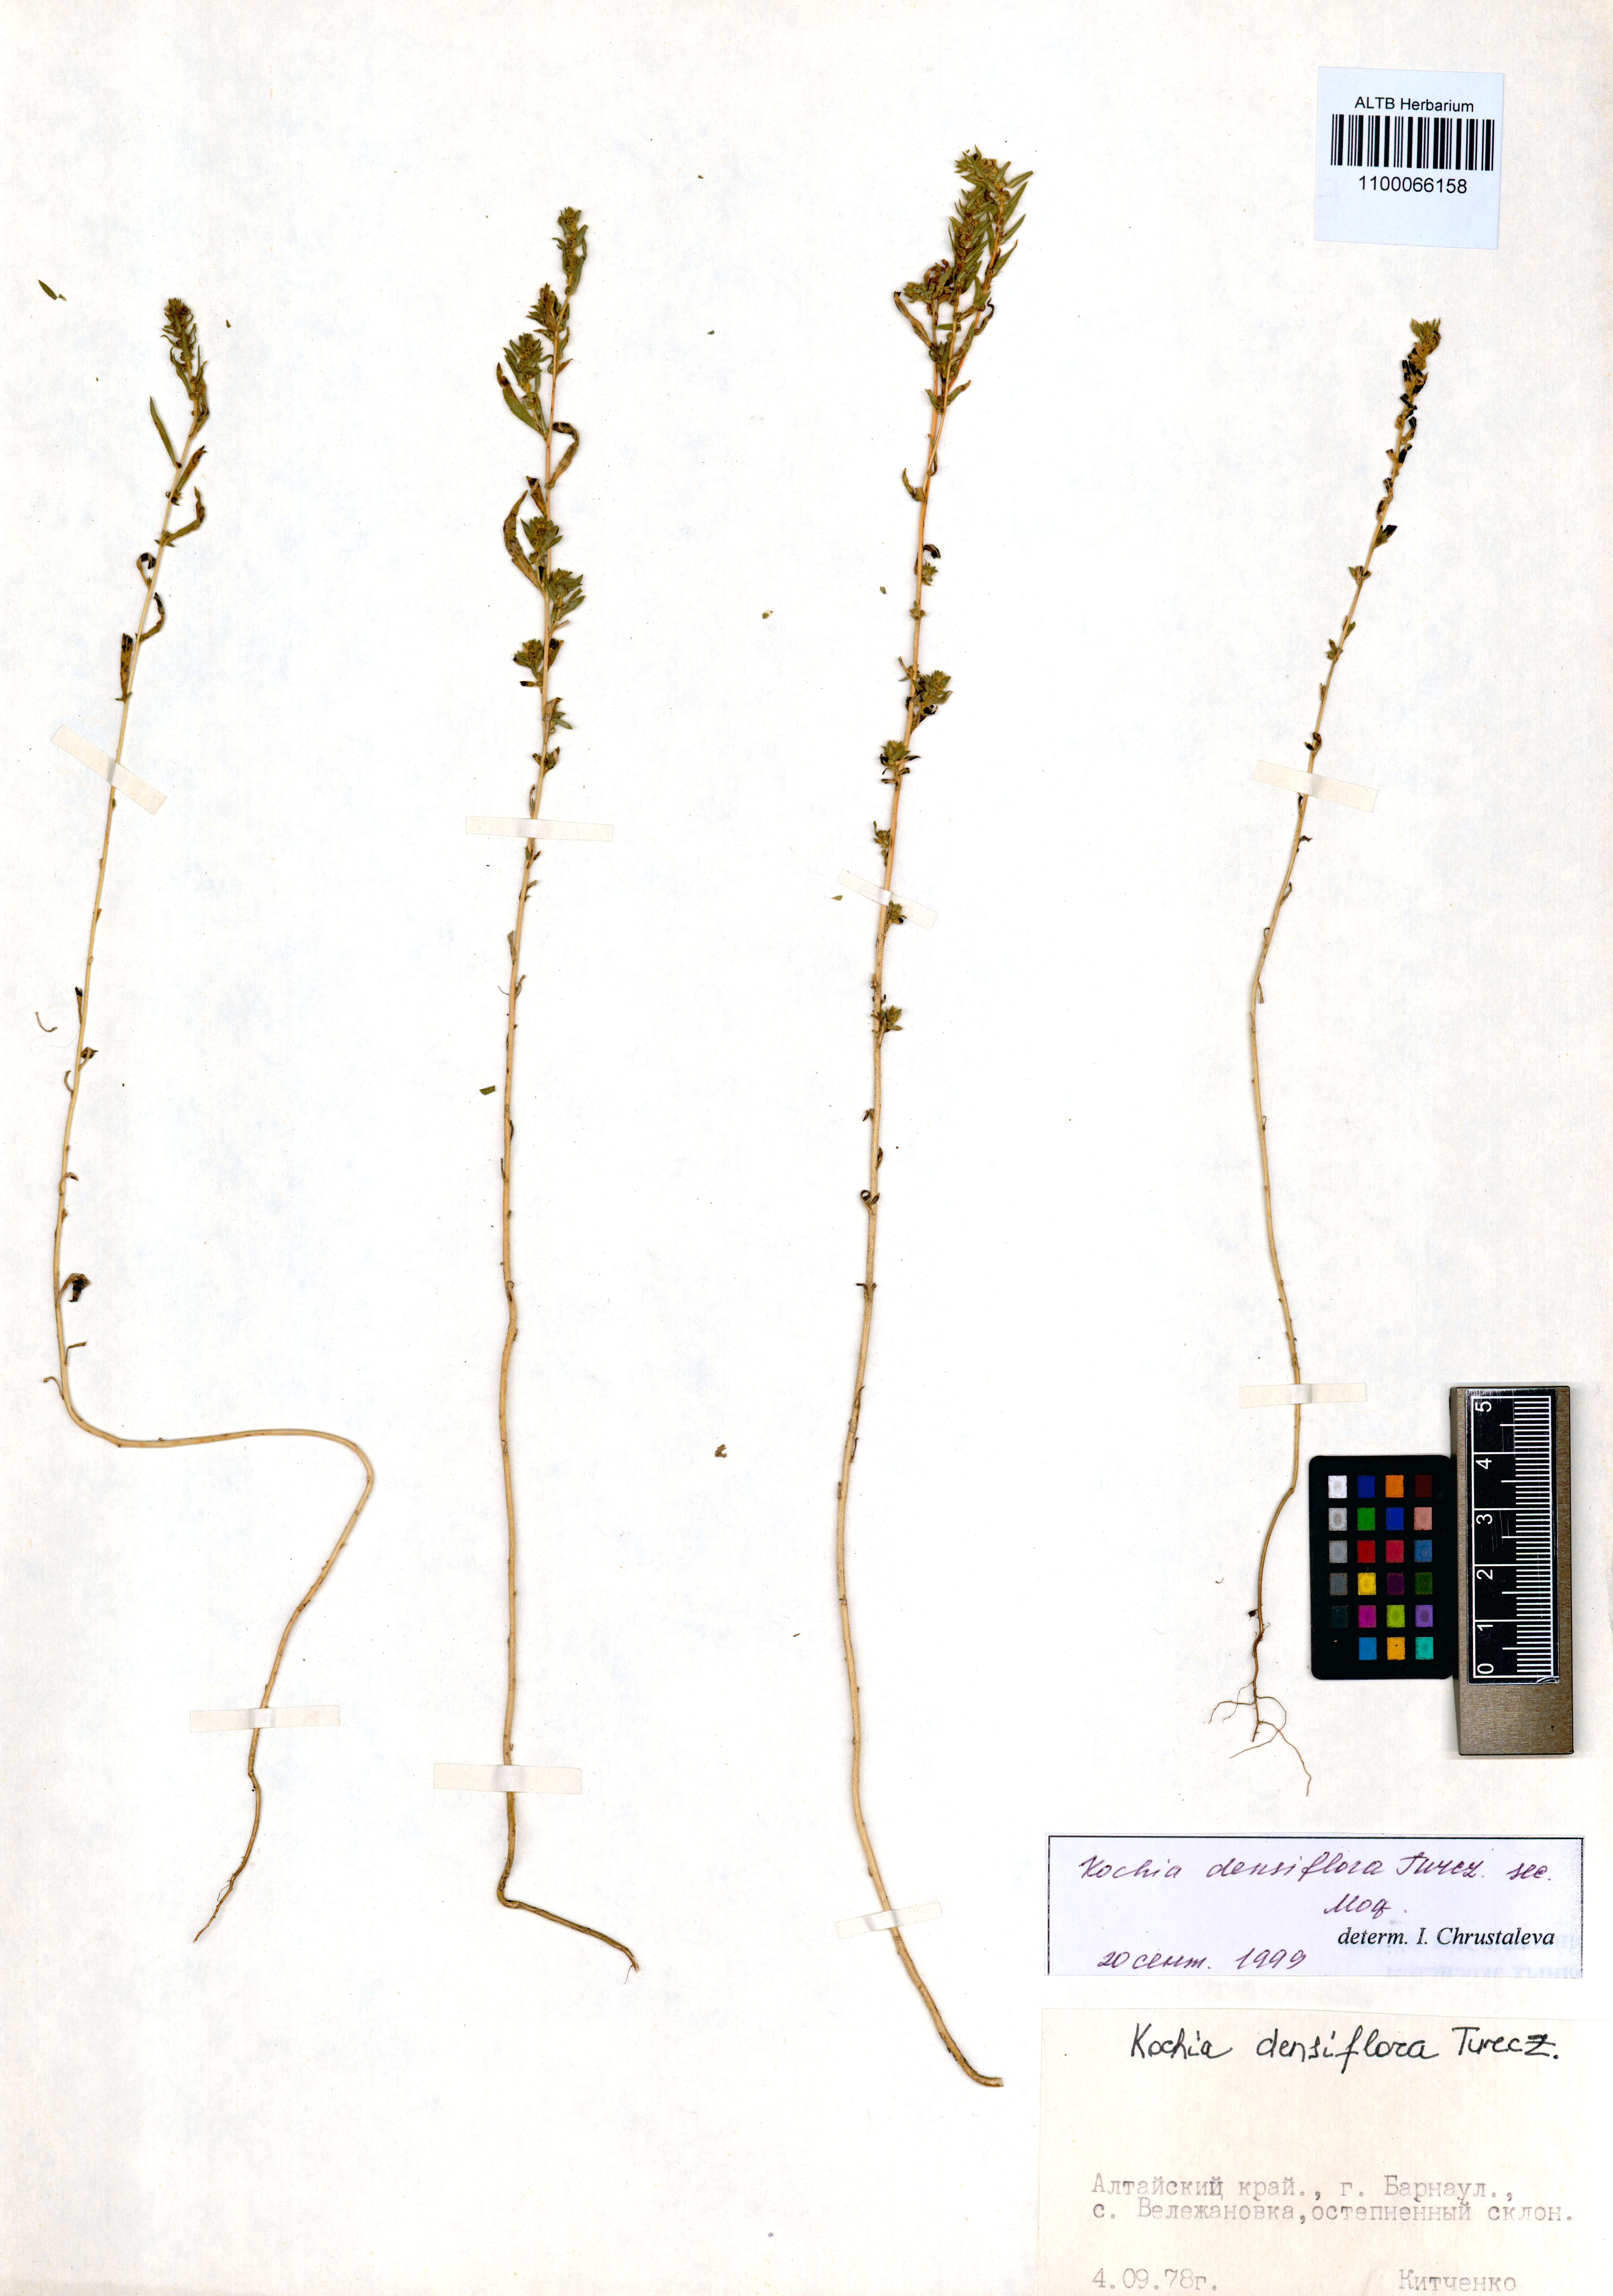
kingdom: Plantae
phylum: Tracheophyta
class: Magnoliopsida
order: Caryophyllales
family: Amaranthaceae
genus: Bassia
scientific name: Bassia scoparia
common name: Belvedere
